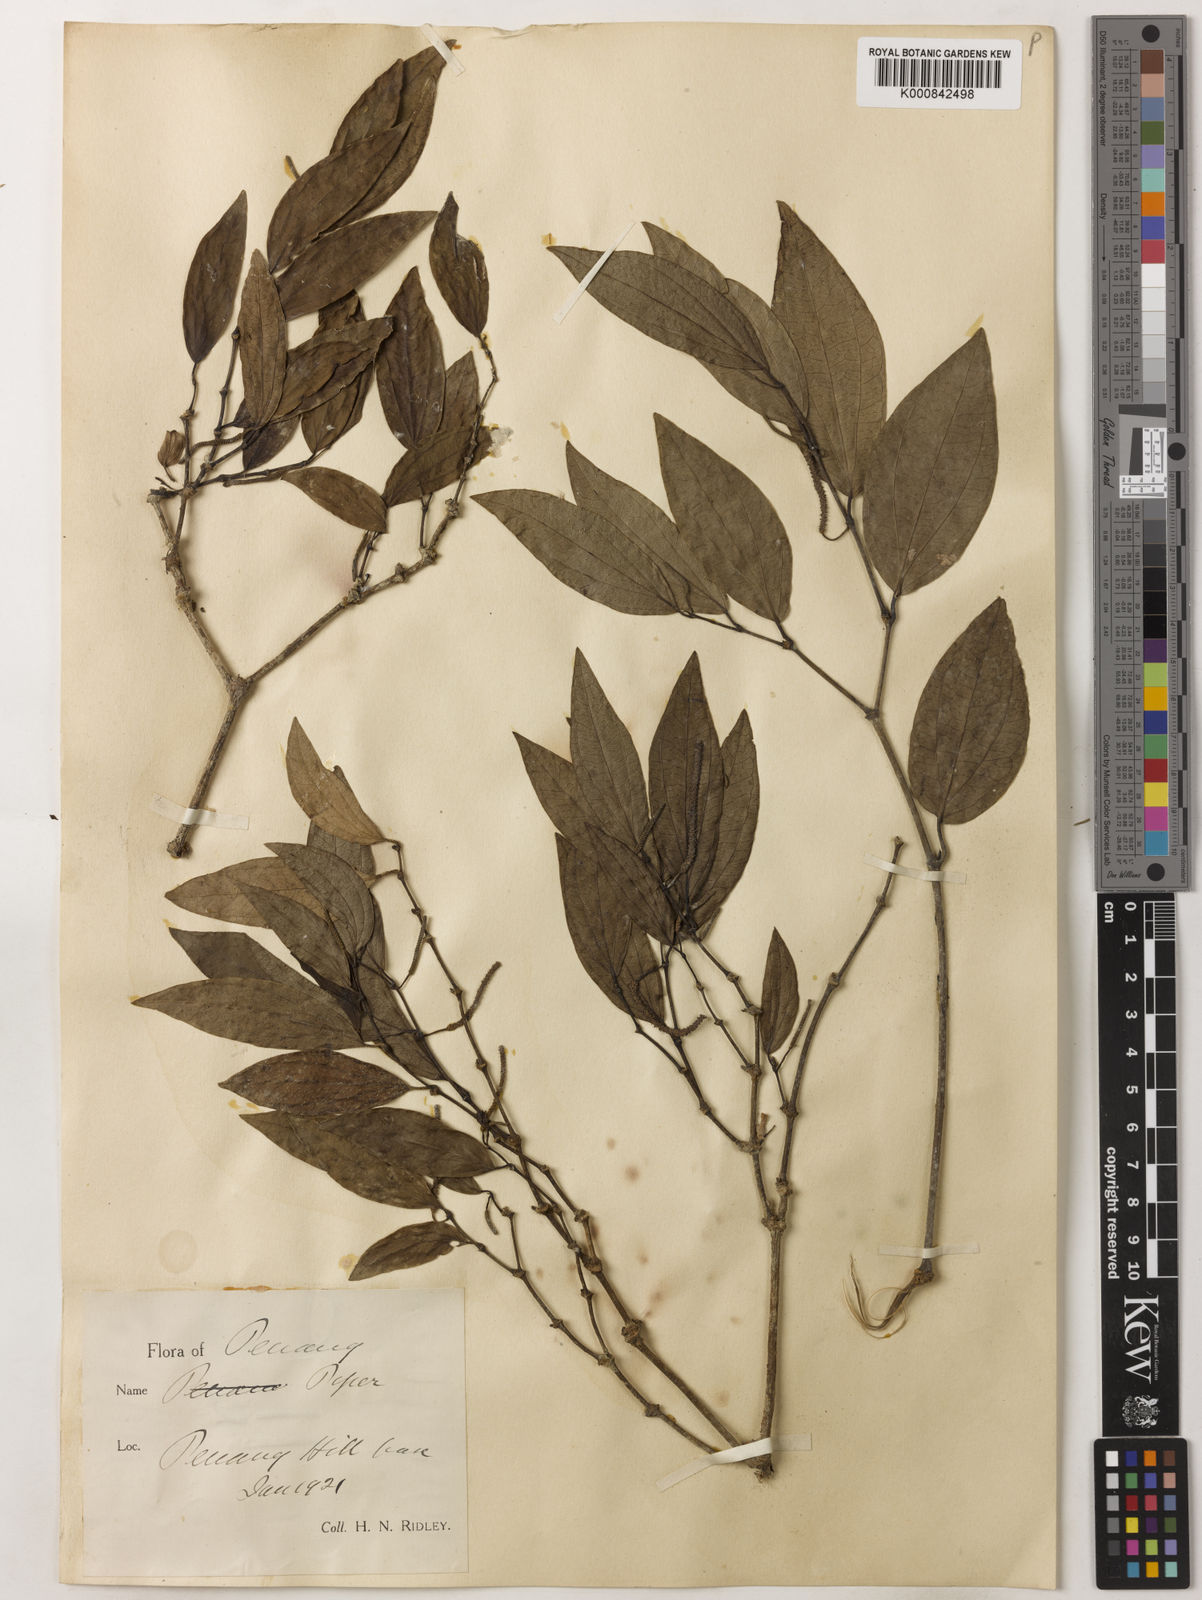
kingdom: Plantae
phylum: Tracheophyta
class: Magnoliopsida
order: Piperales
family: Piperaceae
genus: Piper
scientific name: Piper
